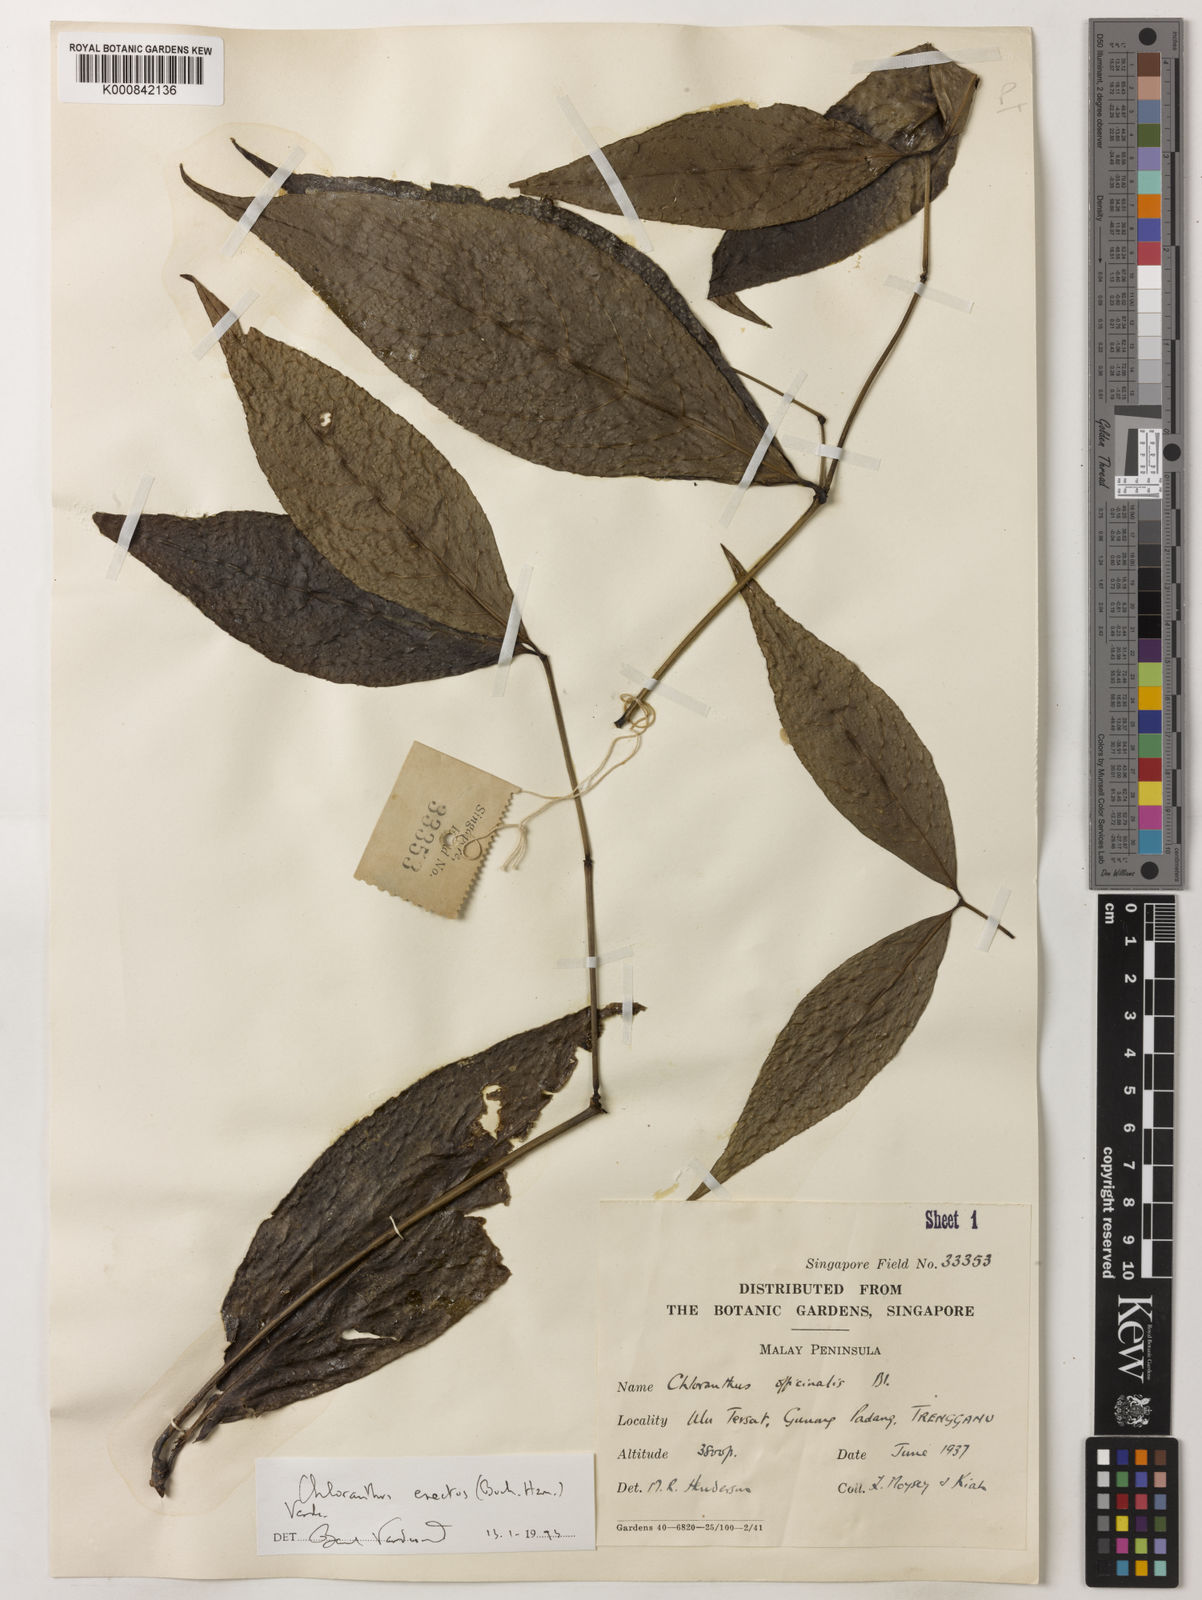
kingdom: Plantae
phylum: Tracheophyta
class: Magnoliopsida
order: Chloranthales
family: Chloranthaceae
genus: Chloranthus
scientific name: Chloranthus
